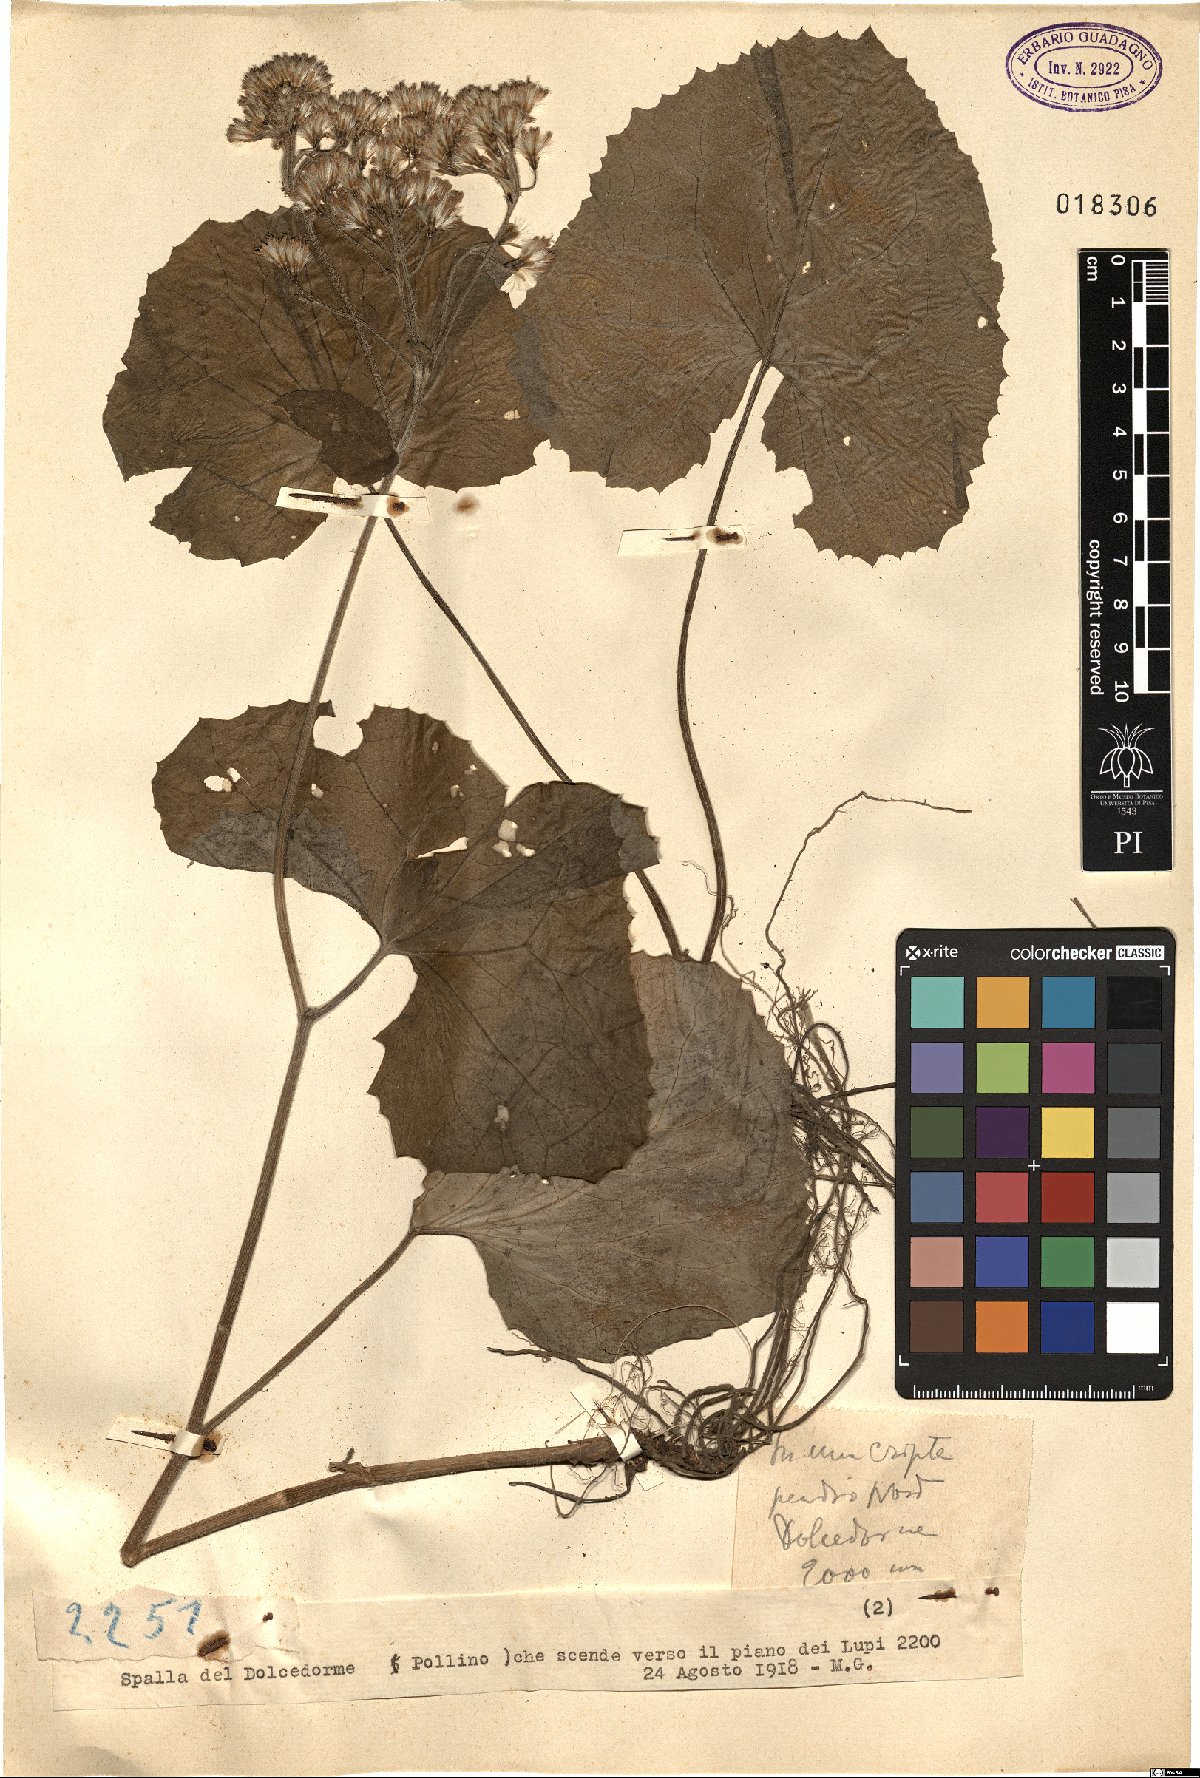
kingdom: Plantae
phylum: Tracheophyta
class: Magnoliopsida
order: Asterales
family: Asteraceae
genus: Adenostyles
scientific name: Adenostyles
